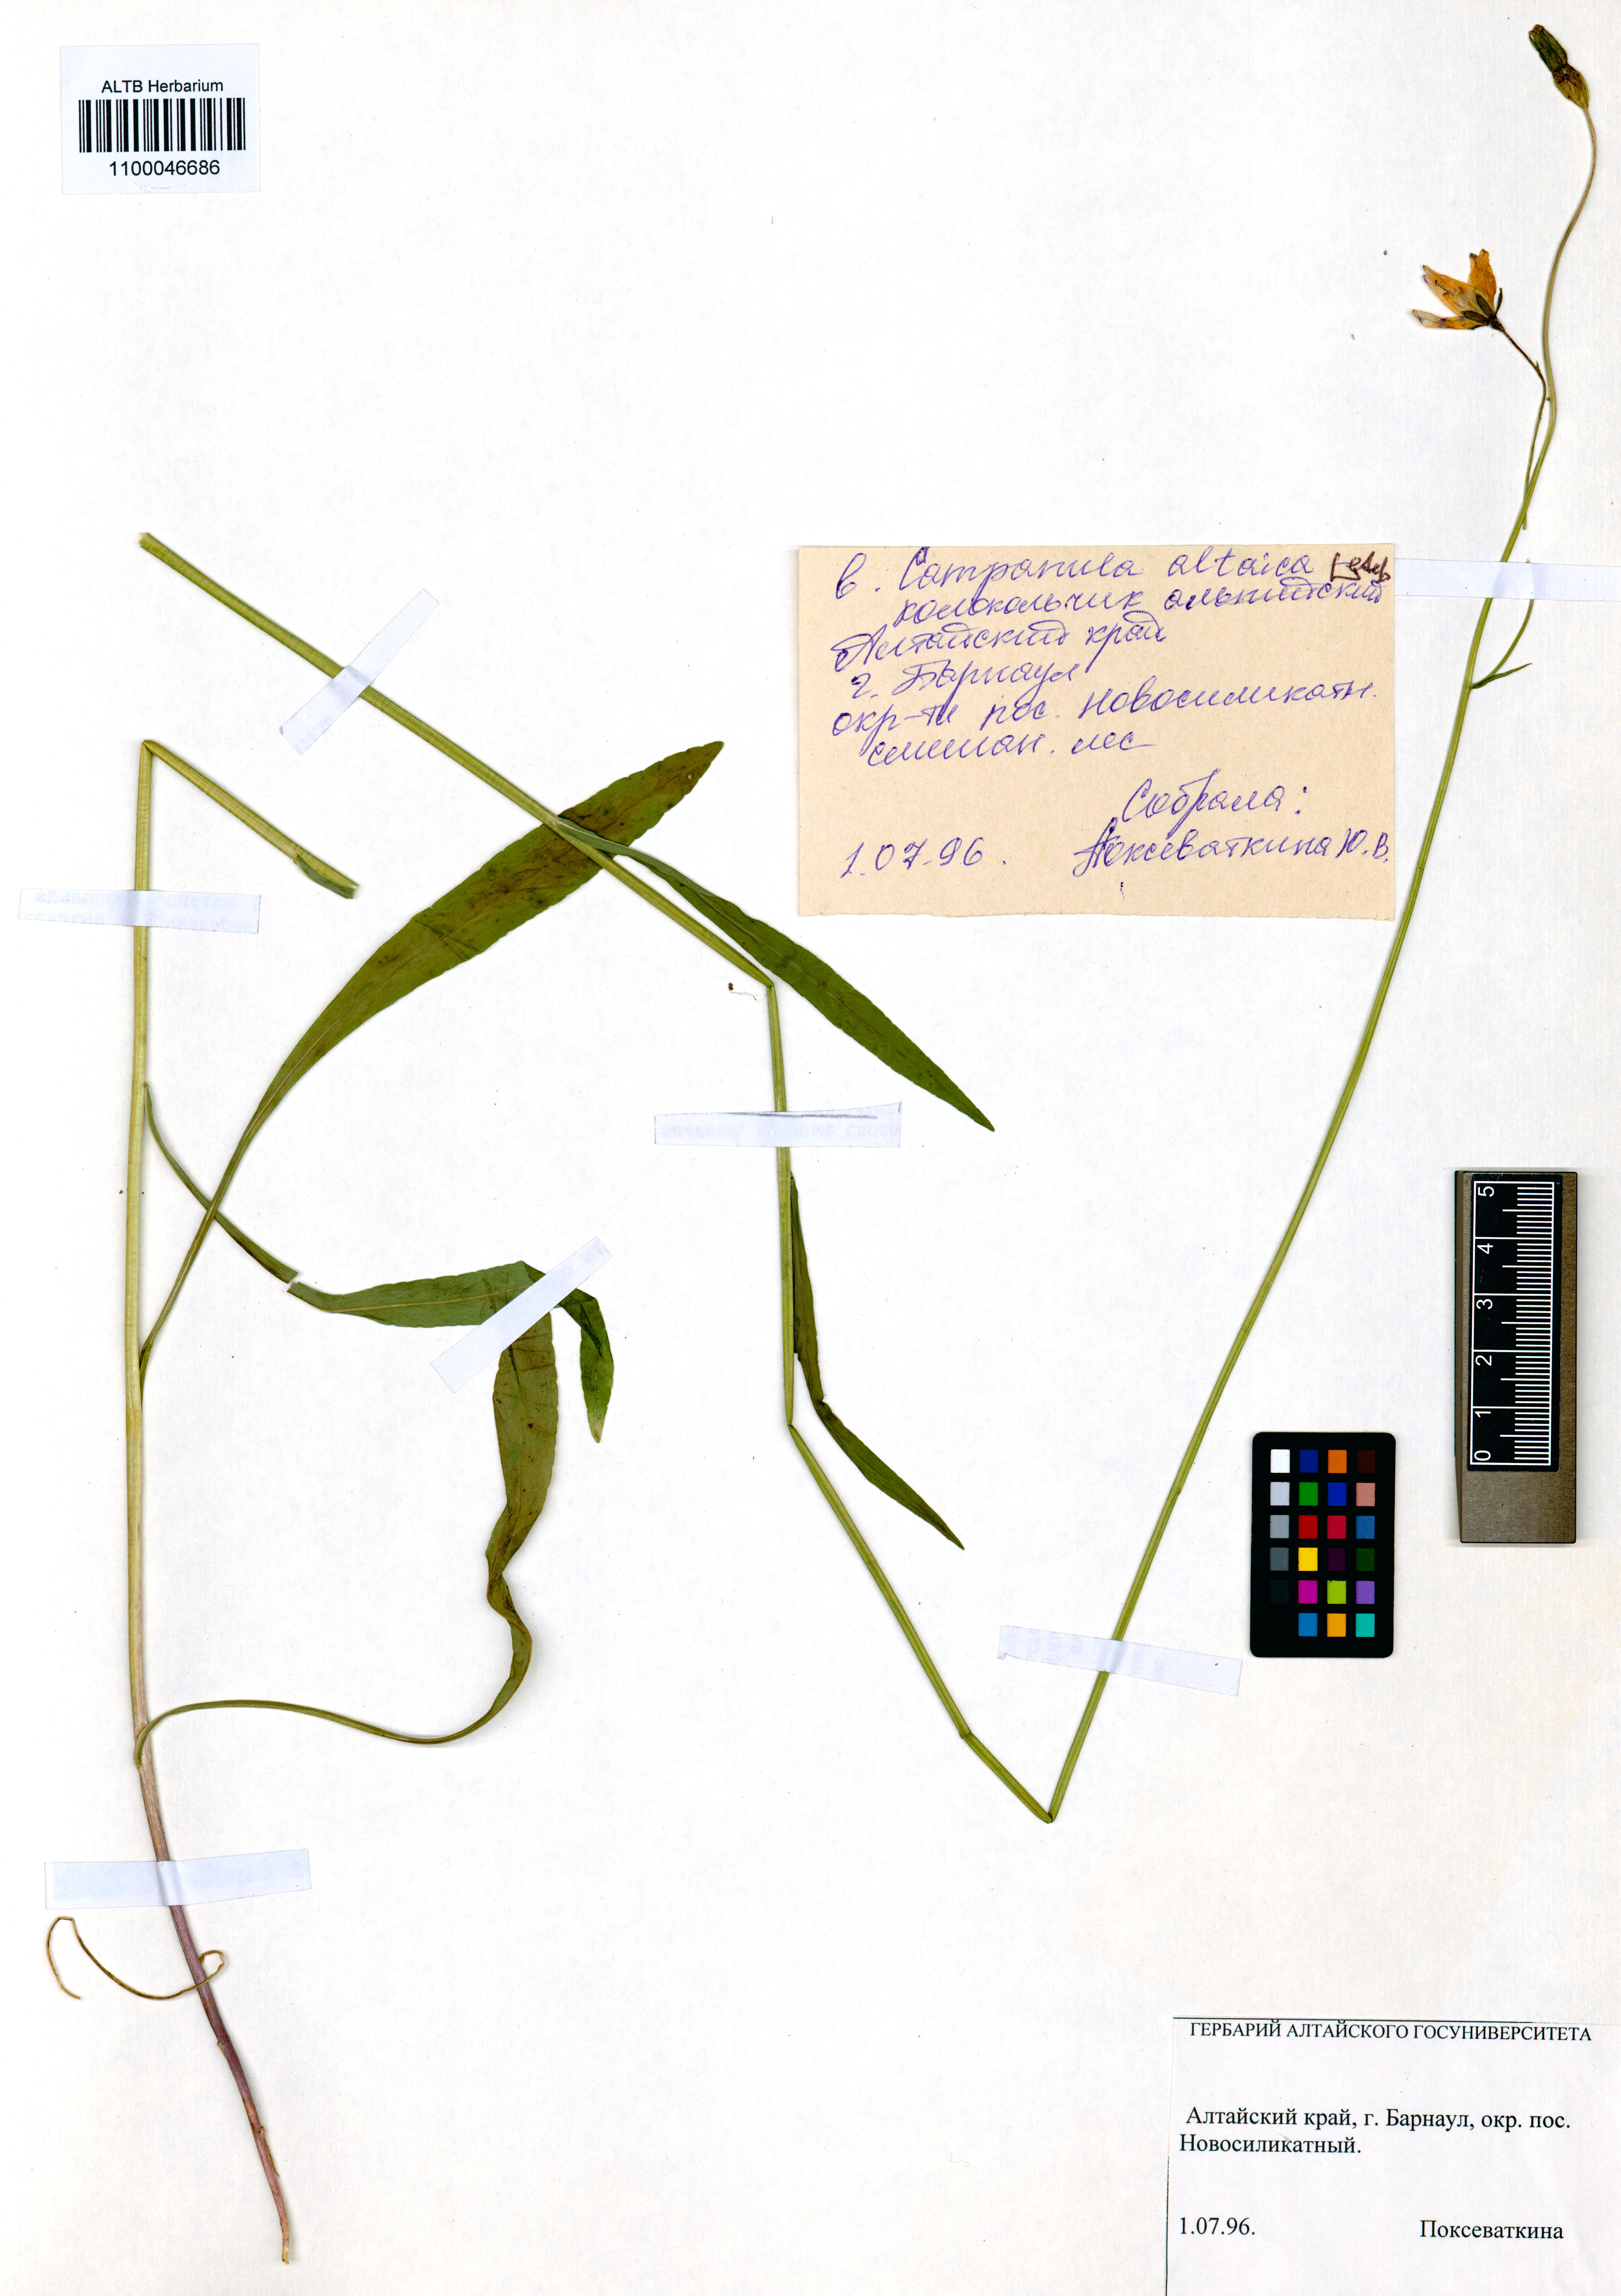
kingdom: Plantae
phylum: Tracheophyta
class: Magnoliopsida
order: Asterales
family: Campanulaceae
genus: Campanula
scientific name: Campanula stevenii
